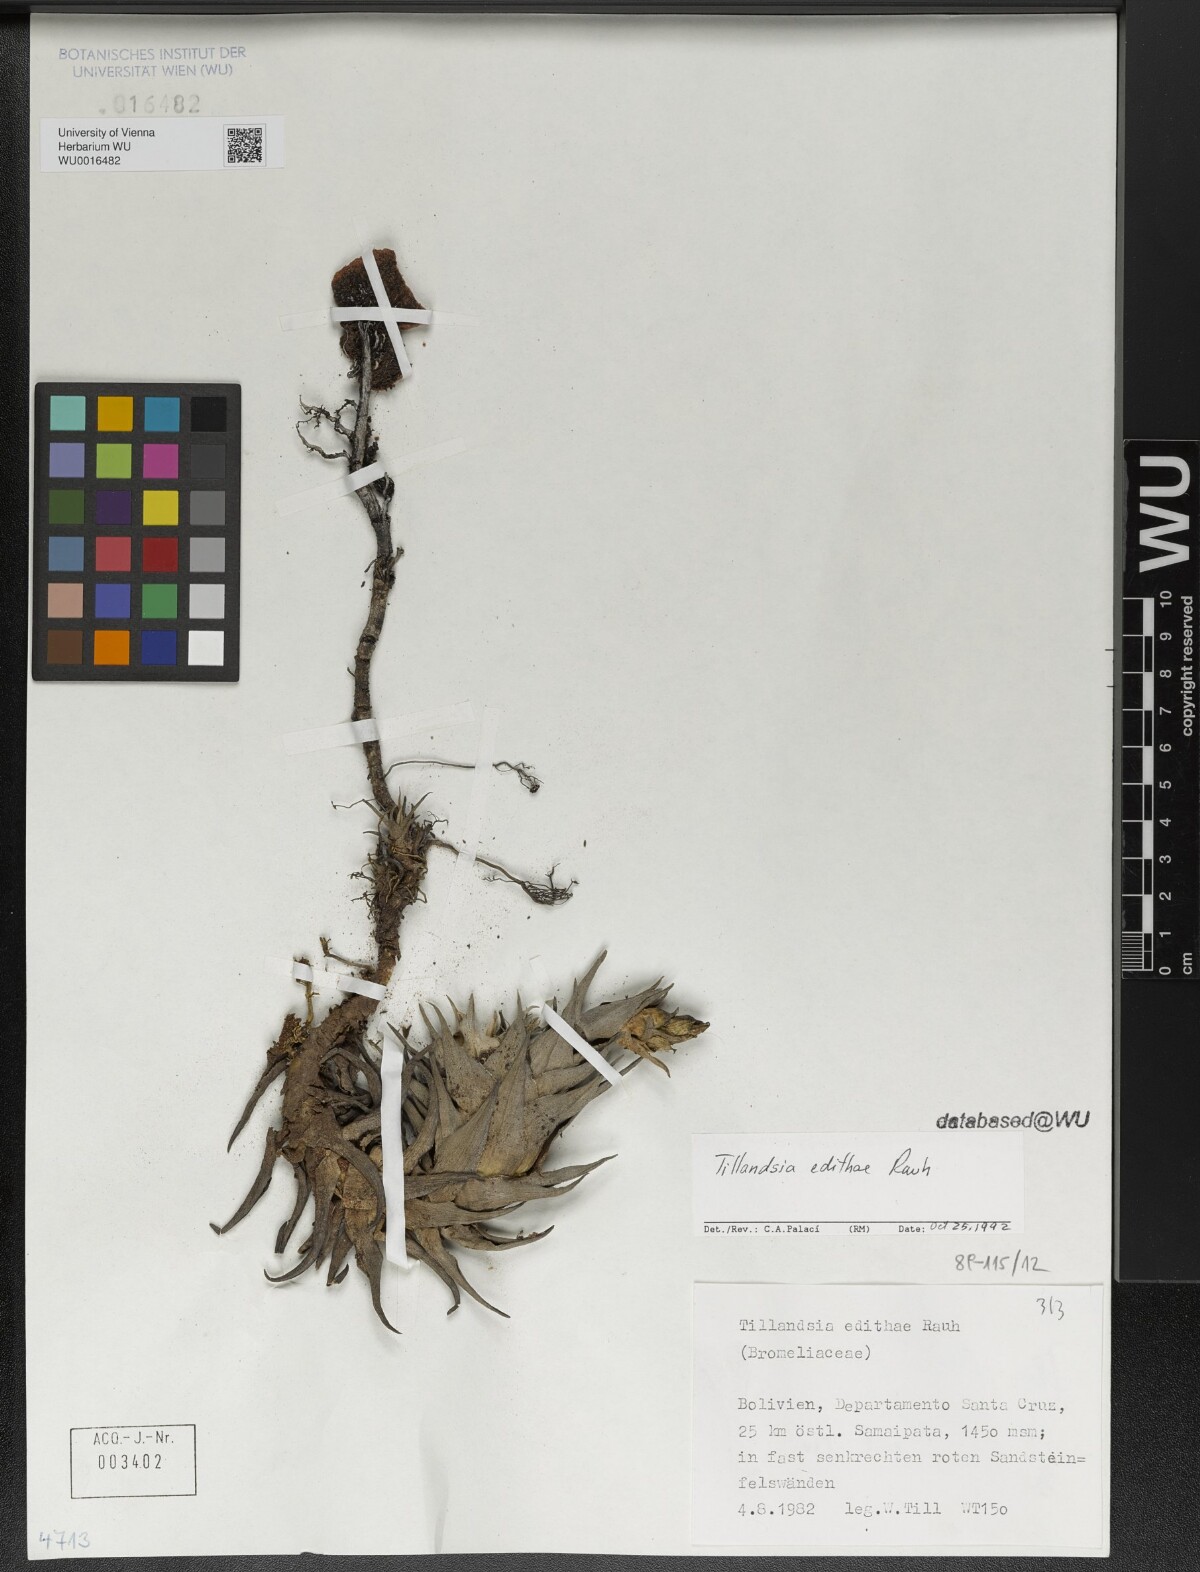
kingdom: Plantae
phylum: Tracheophyta
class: Liliopsida
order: Poales
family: Bromeliaceae
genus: Tillandsia
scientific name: Tillandsia edithae
